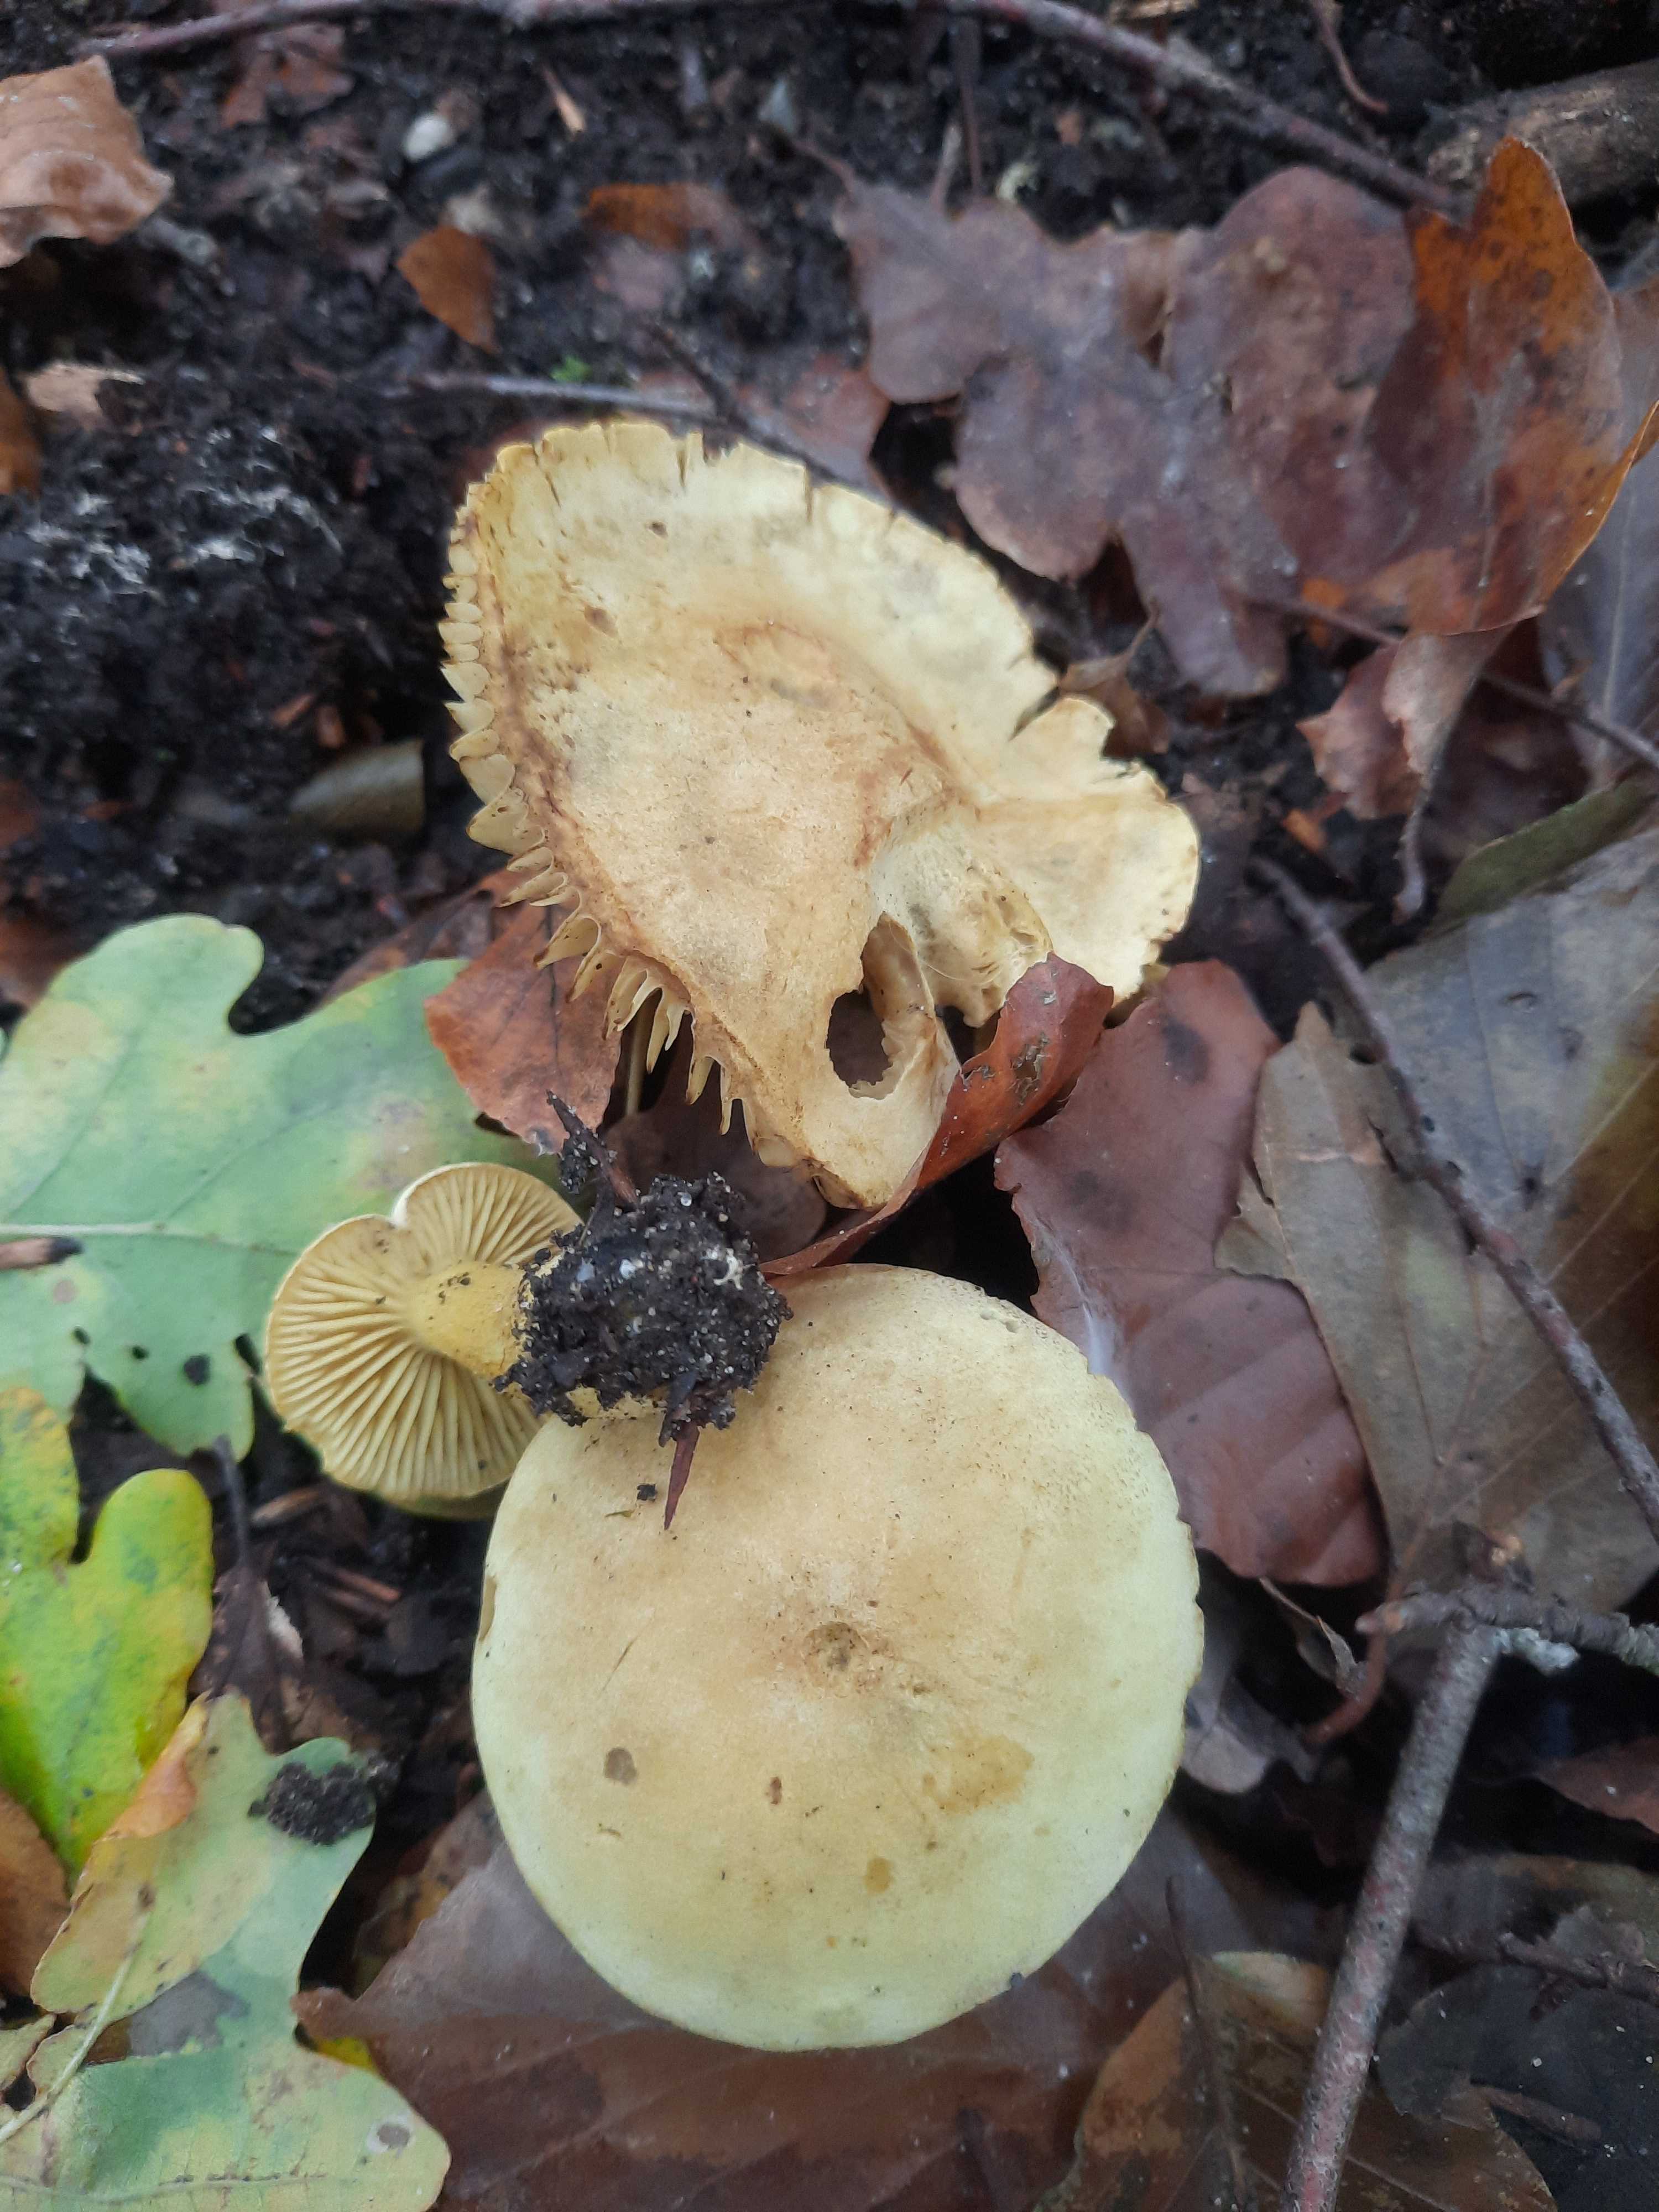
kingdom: Fungi
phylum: Basidiomycota
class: Agaricomycetes
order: Agaricales
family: Tricholomataceae
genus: Tricholoma
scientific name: Tricholoma sulphureum
